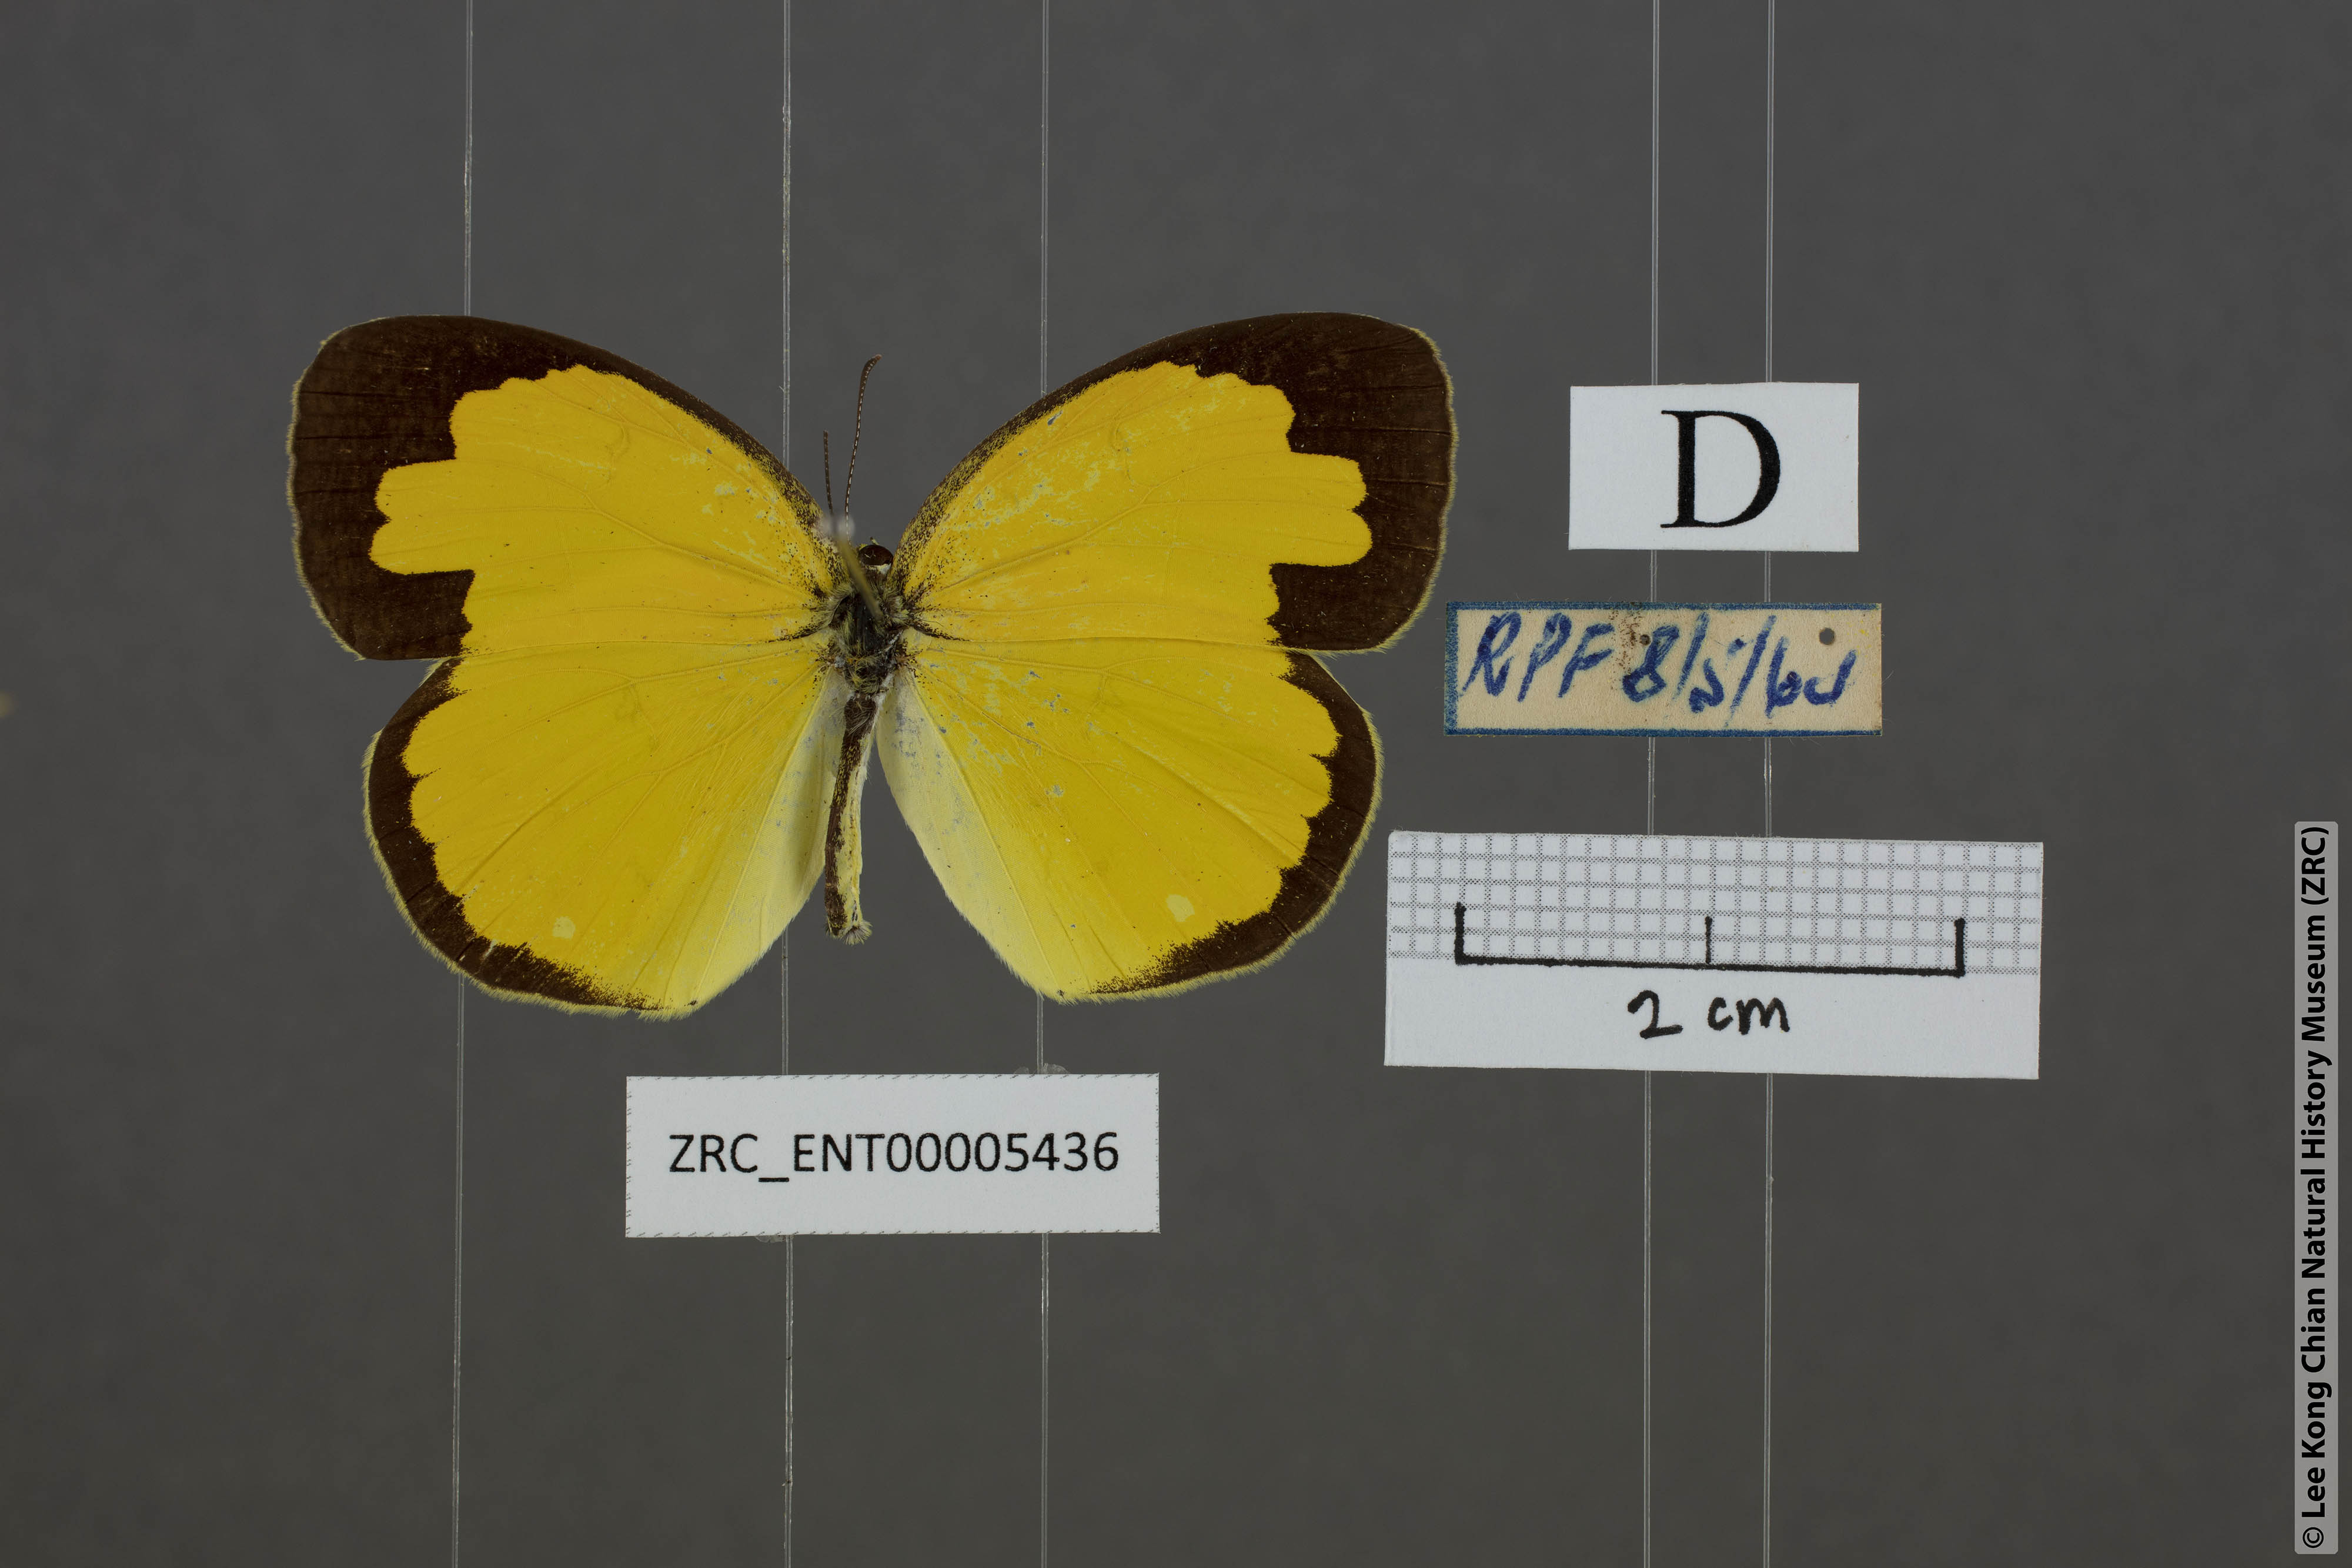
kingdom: Animalia
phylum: Arthropoda
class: Insecta
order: Lepidoptera
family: Pieridae
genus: Eurema
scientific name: Eurema blanda
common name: Three-spot grass yellow
